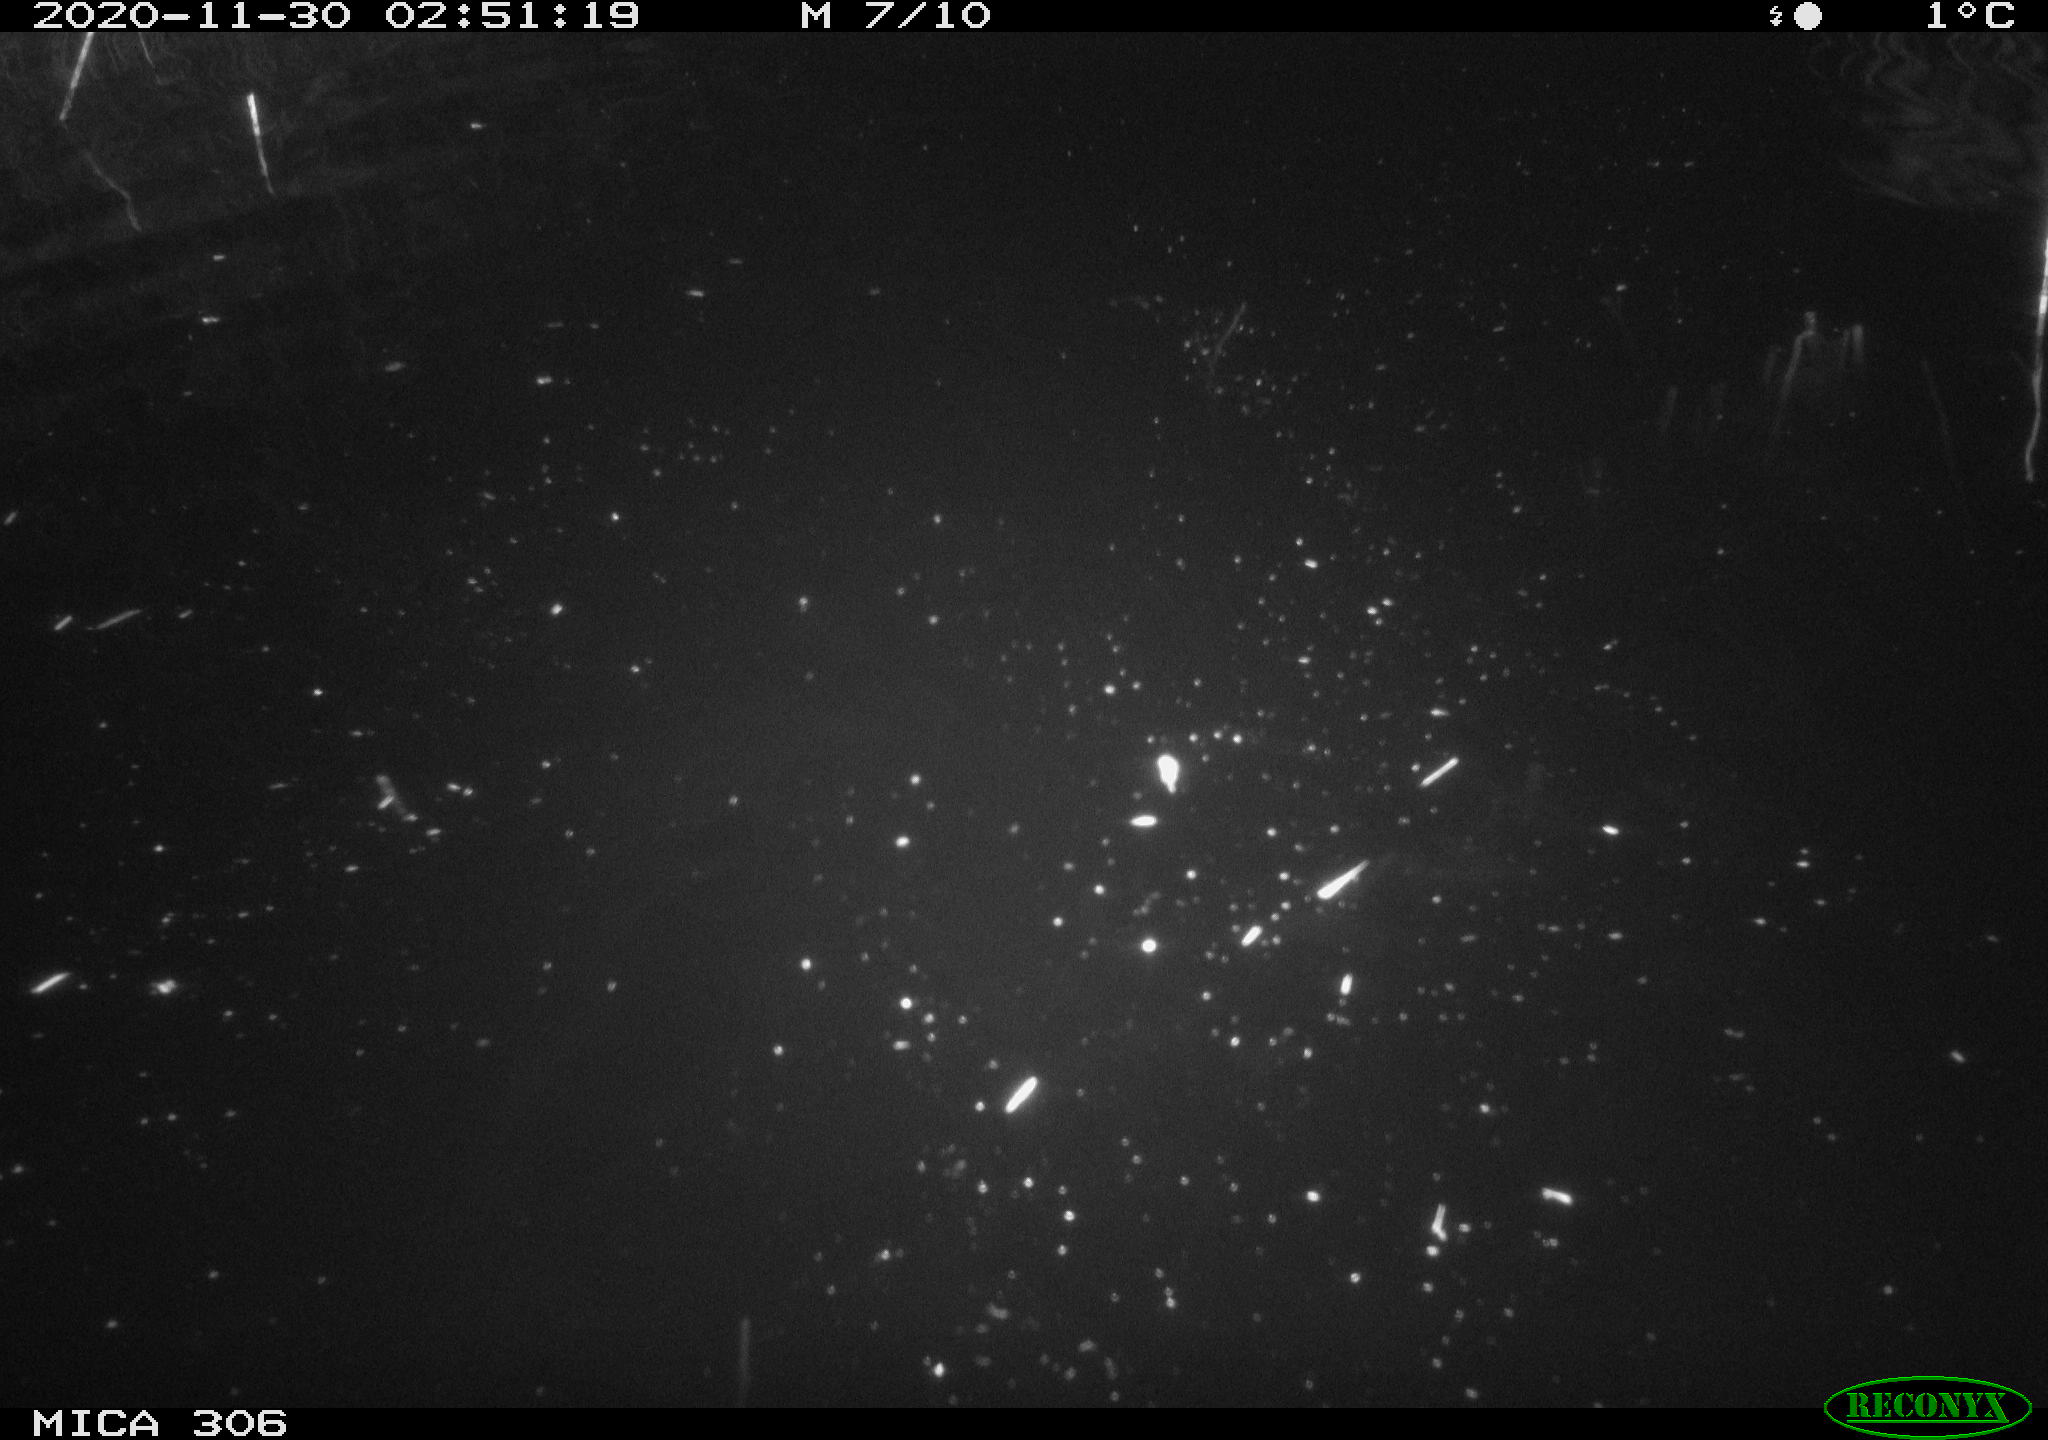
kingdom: Animalia
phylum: Chordata
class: Mammalia
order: Rodentia
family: Cricetidae
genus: Ondatra
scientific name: Ondatra zibethicus
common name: Muskrat
